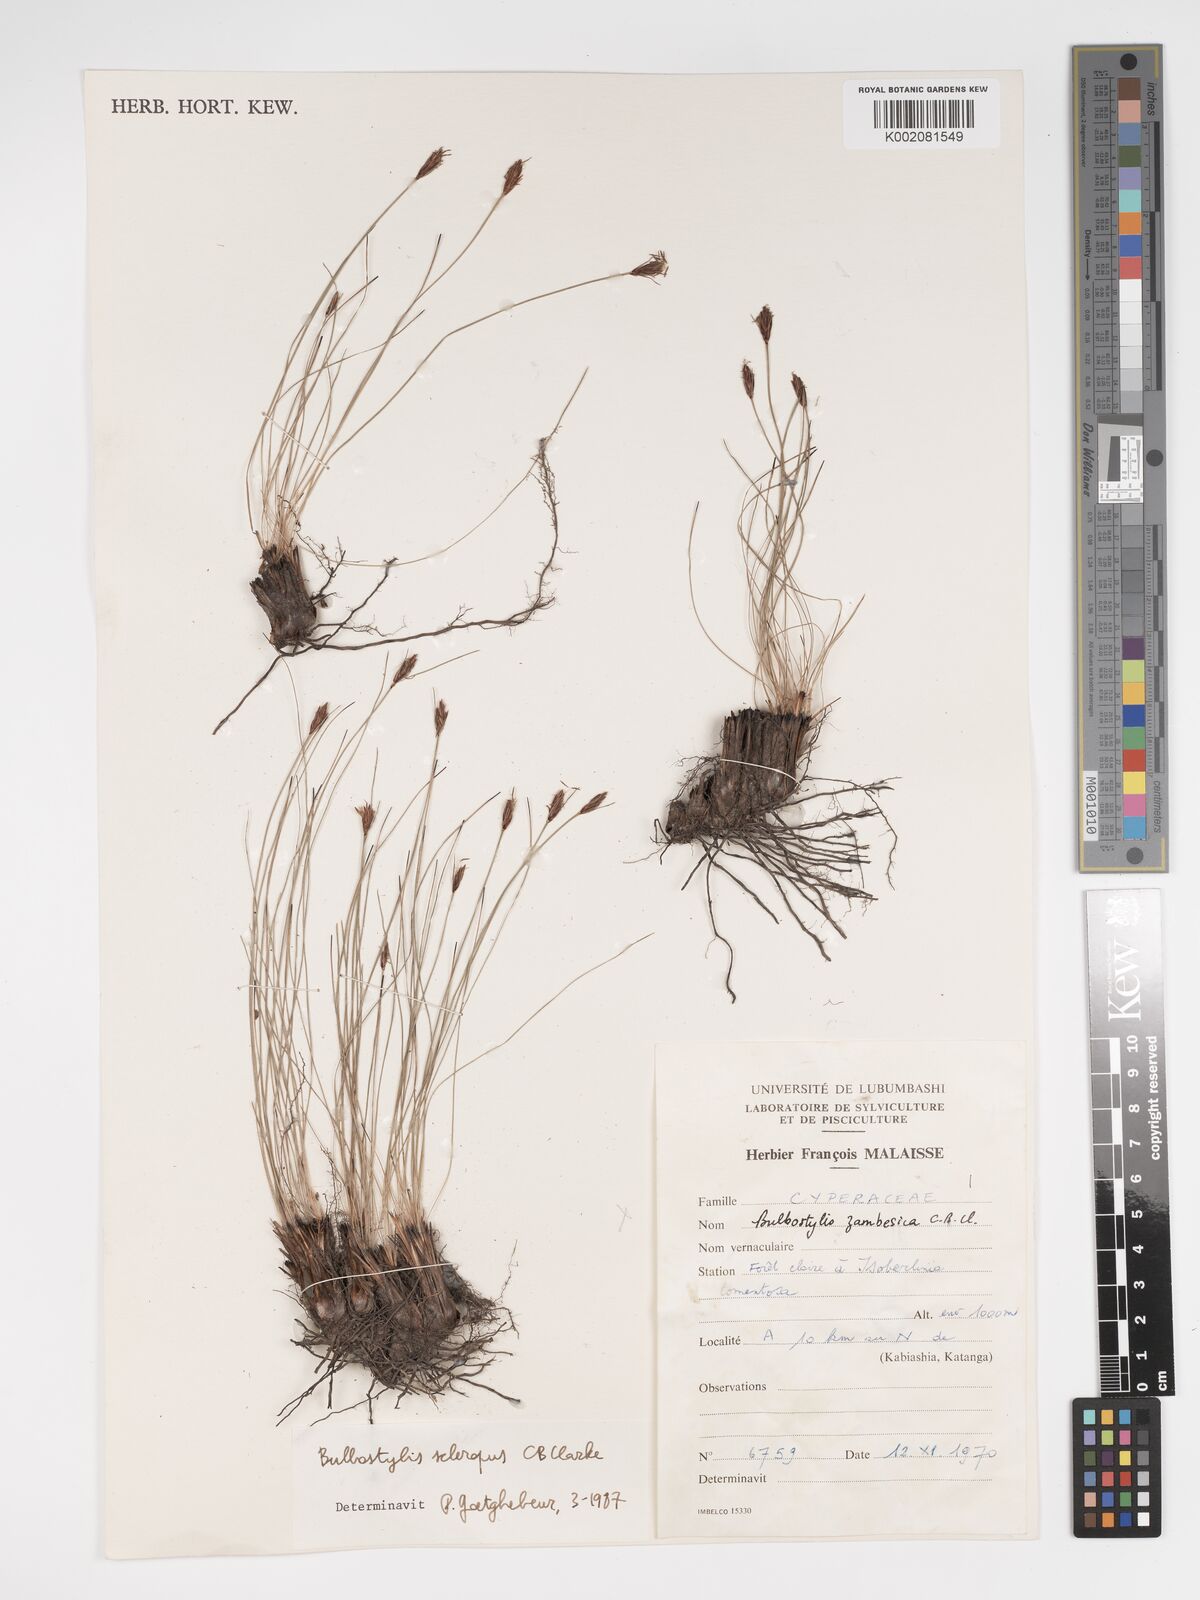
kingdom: Plantae
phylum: Tracheophyta
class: Liliopsida
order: Poales
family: Cyperaceae
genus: Bulbostylis
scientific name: Bulbostylis schoenoides
